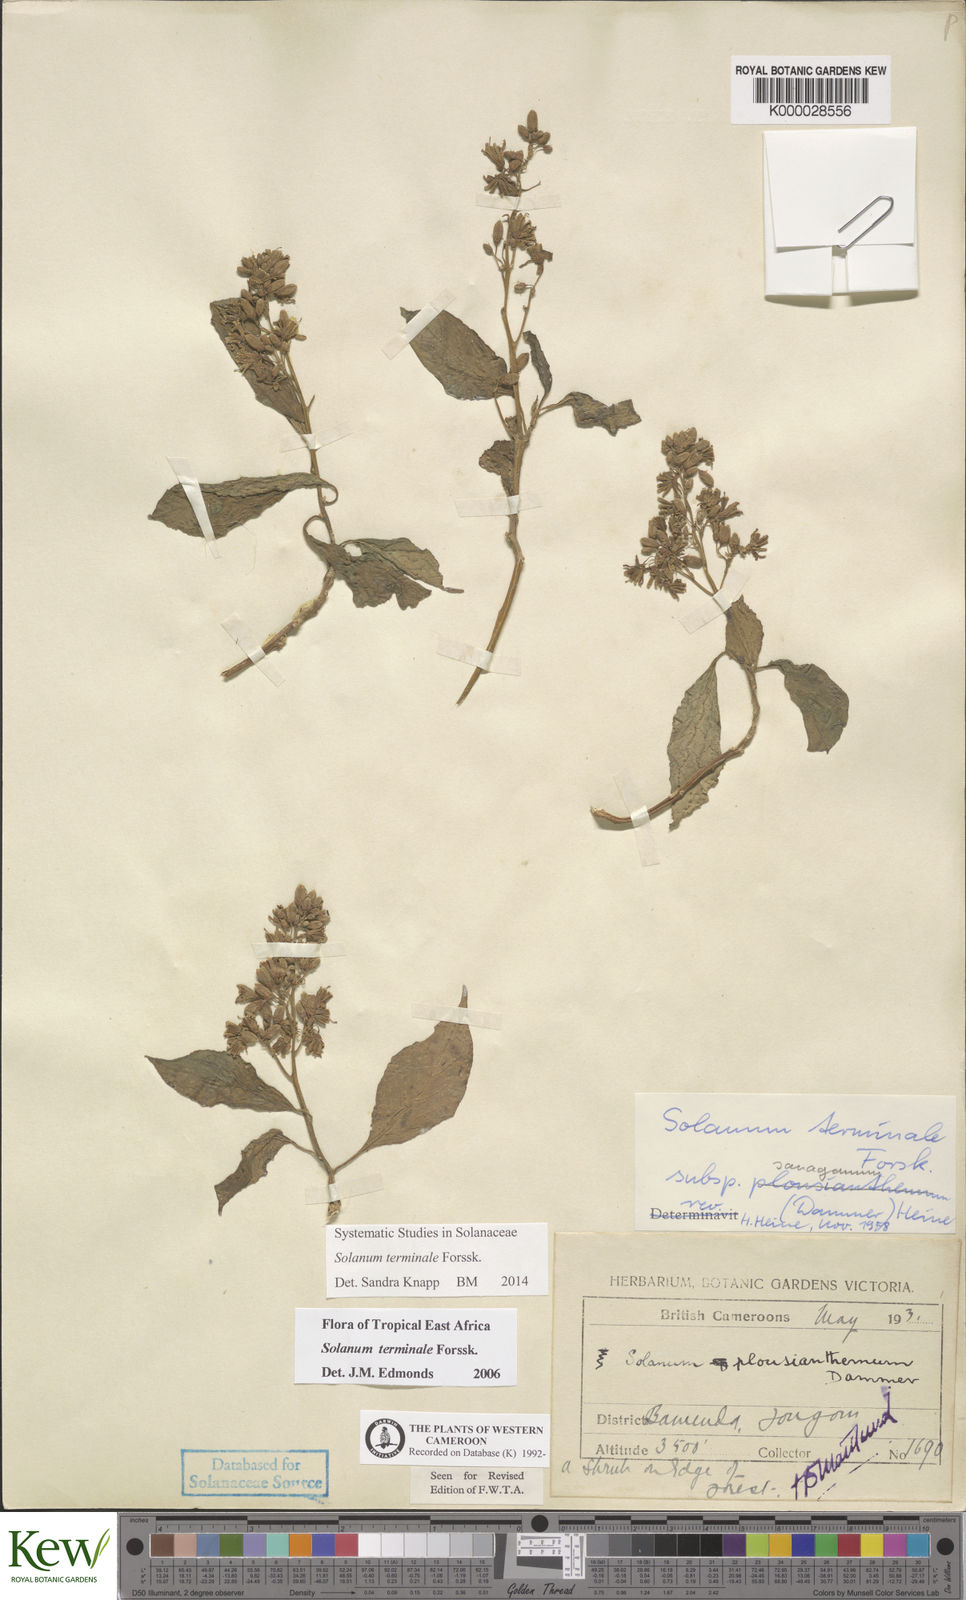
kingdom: Plantae
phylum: Tracheophyta
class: Magnoliopsida
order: Solanales
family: Solanaceae
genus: Solanum
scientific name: Solanum terminale
